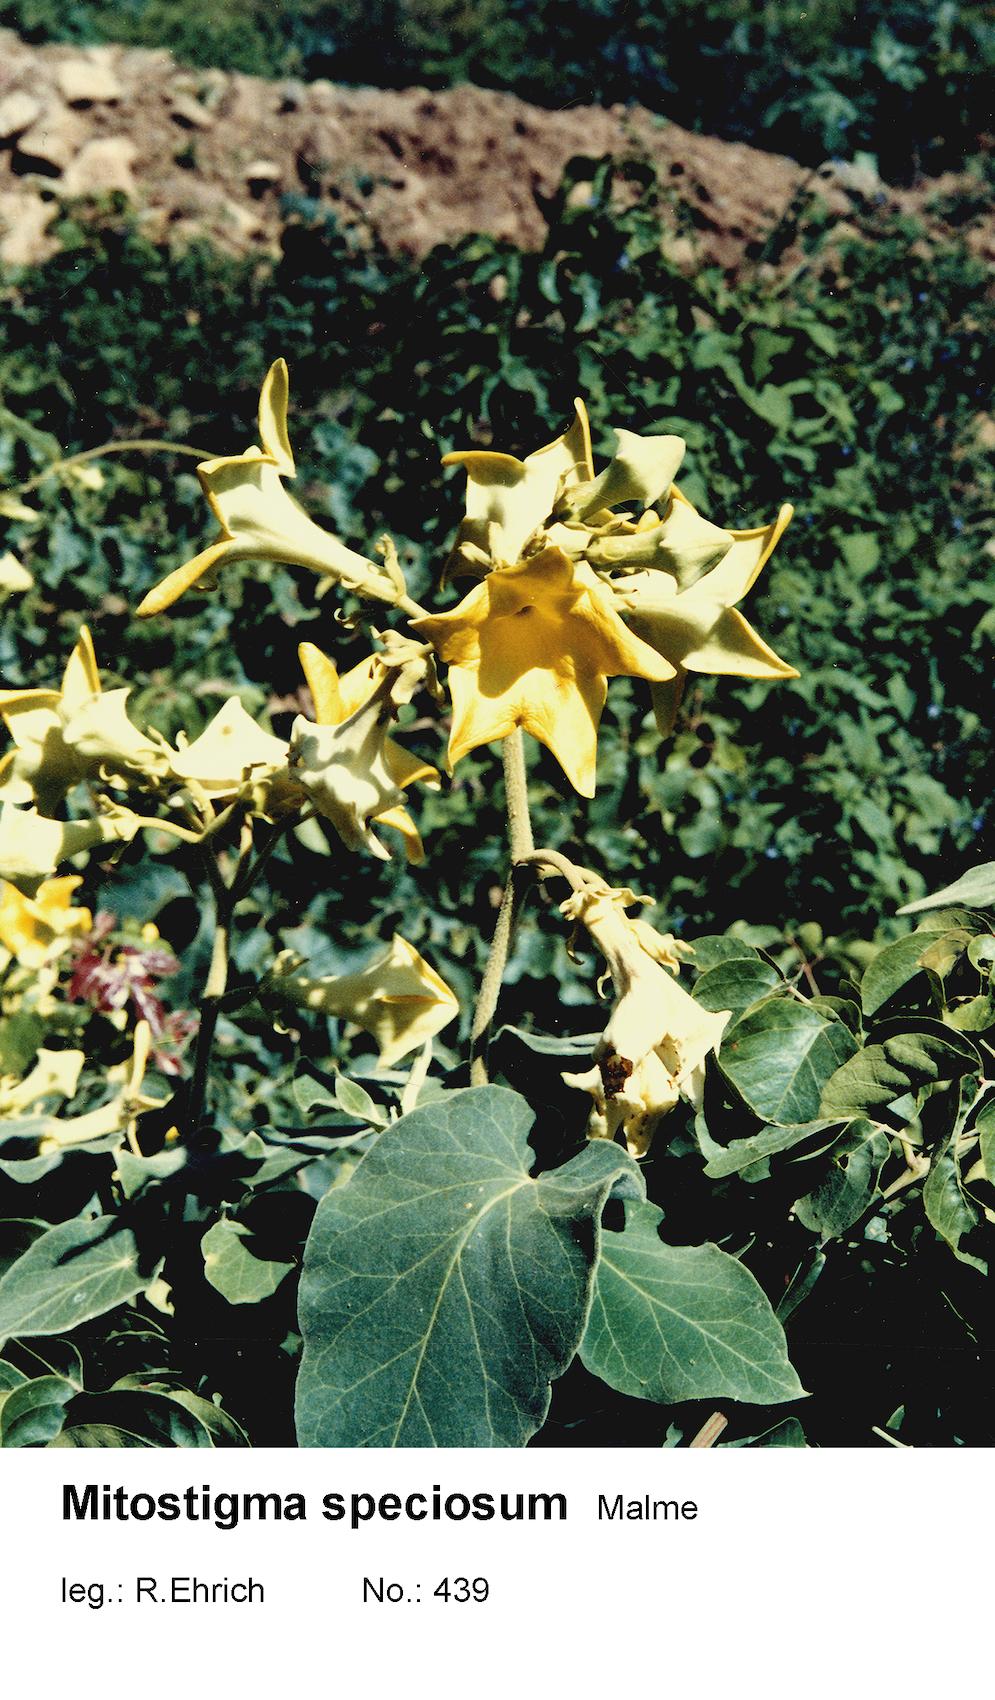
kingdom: Plantae
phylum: Tracheophyta
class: Magnoliopsida
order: Gentianales
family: Apocynaceae
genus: Philibertia
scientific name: Philibertia speciosa
